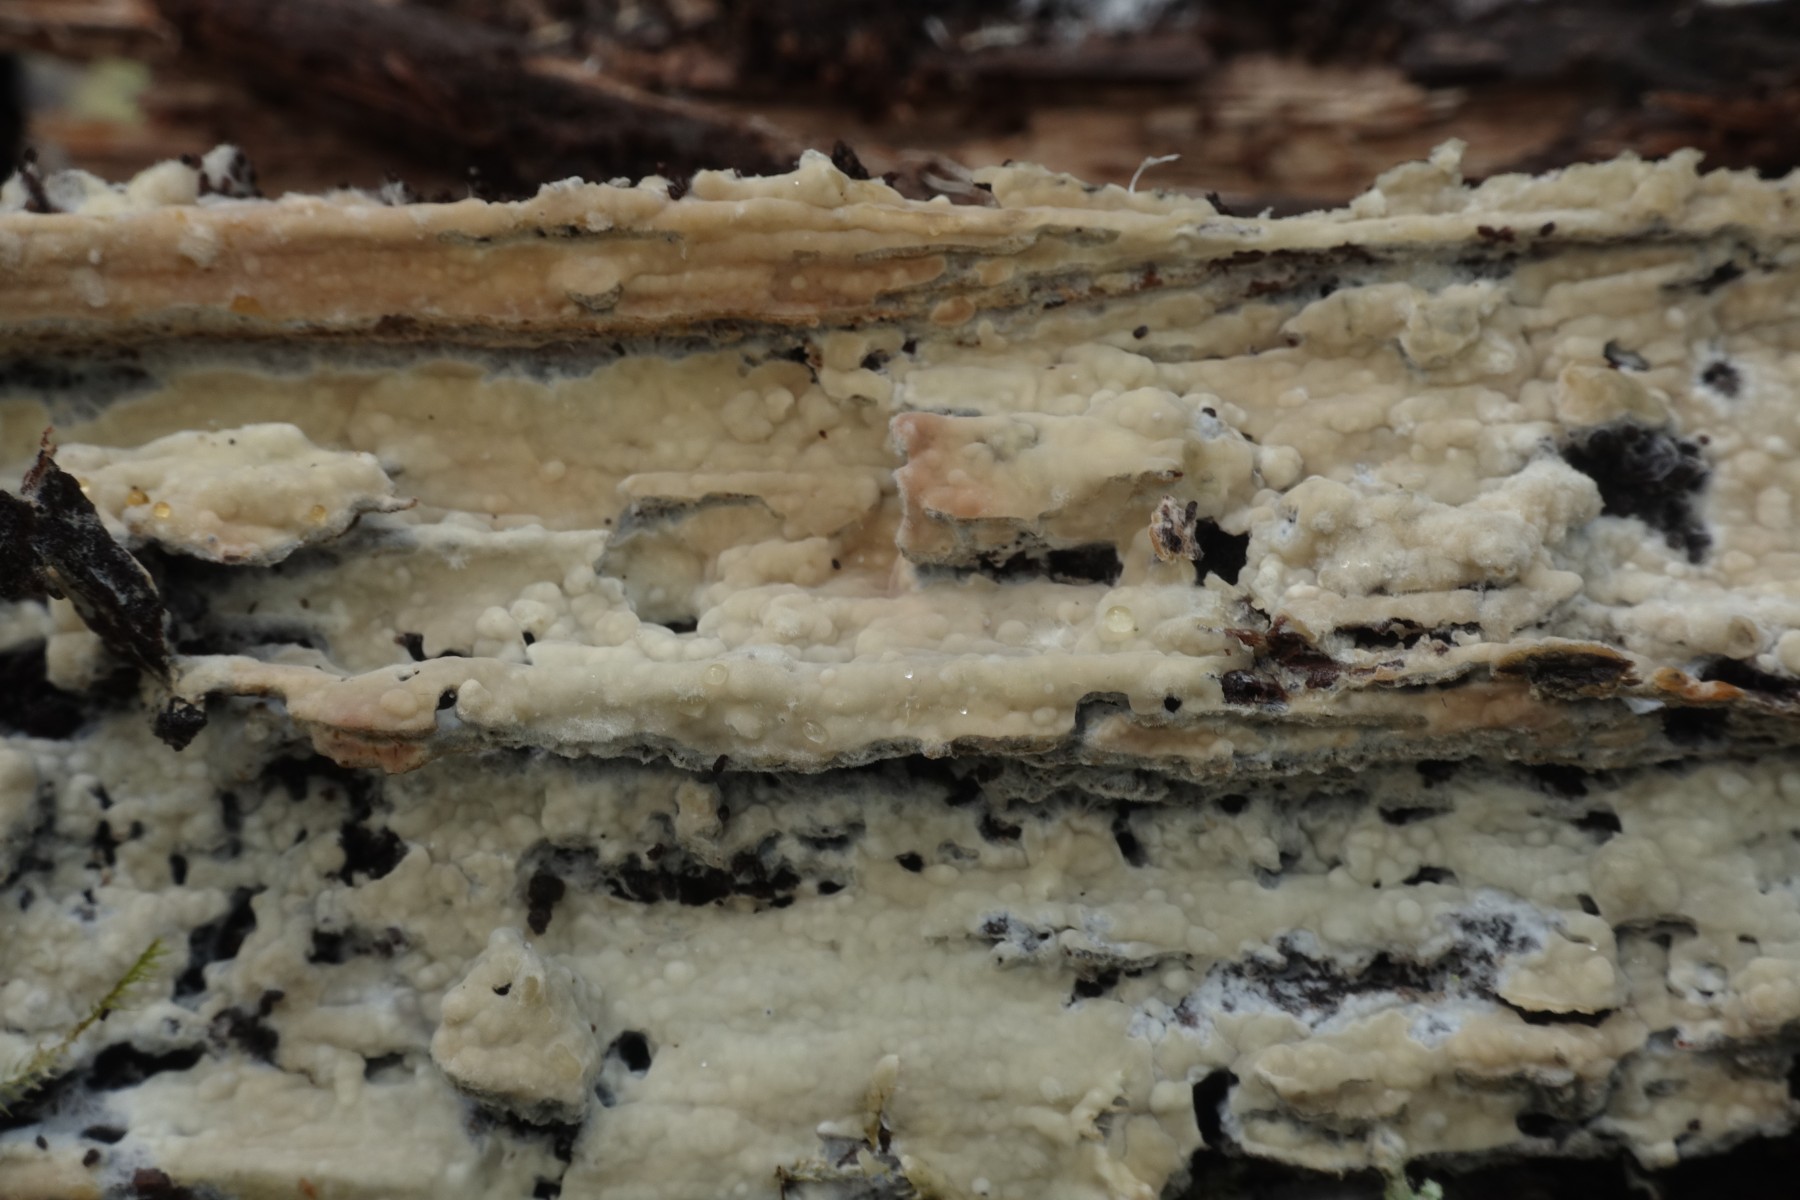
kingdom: Fungi
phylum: Basidiomycota
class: Agaricomycetes
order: Russulales
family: Peniophoraceae
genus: Gloiothele
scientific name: Gloiothele citrina
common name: citronskorpe
